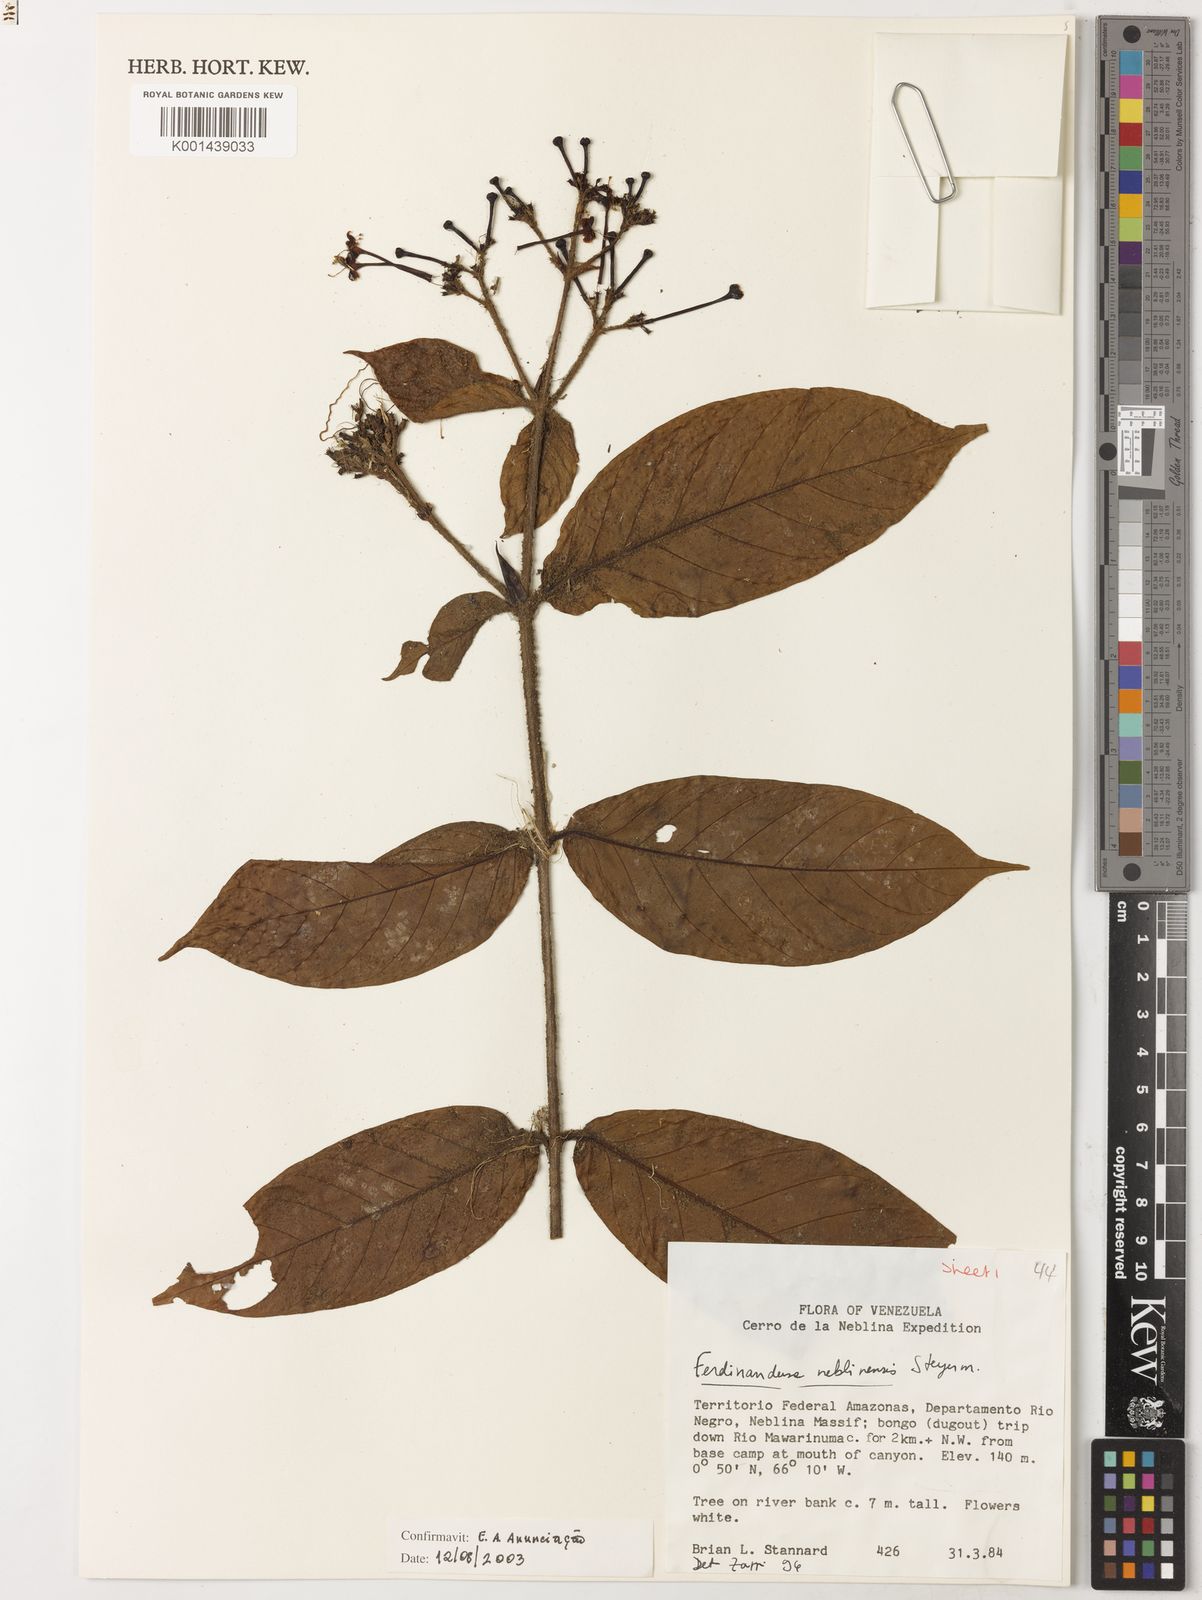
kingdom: Plantae
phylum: Tracheophyta
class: Magnoliopsida
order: Gentianales
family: Rubiaceae
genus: Ferdinandusa
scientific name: Ferdinandusa neblinensis
